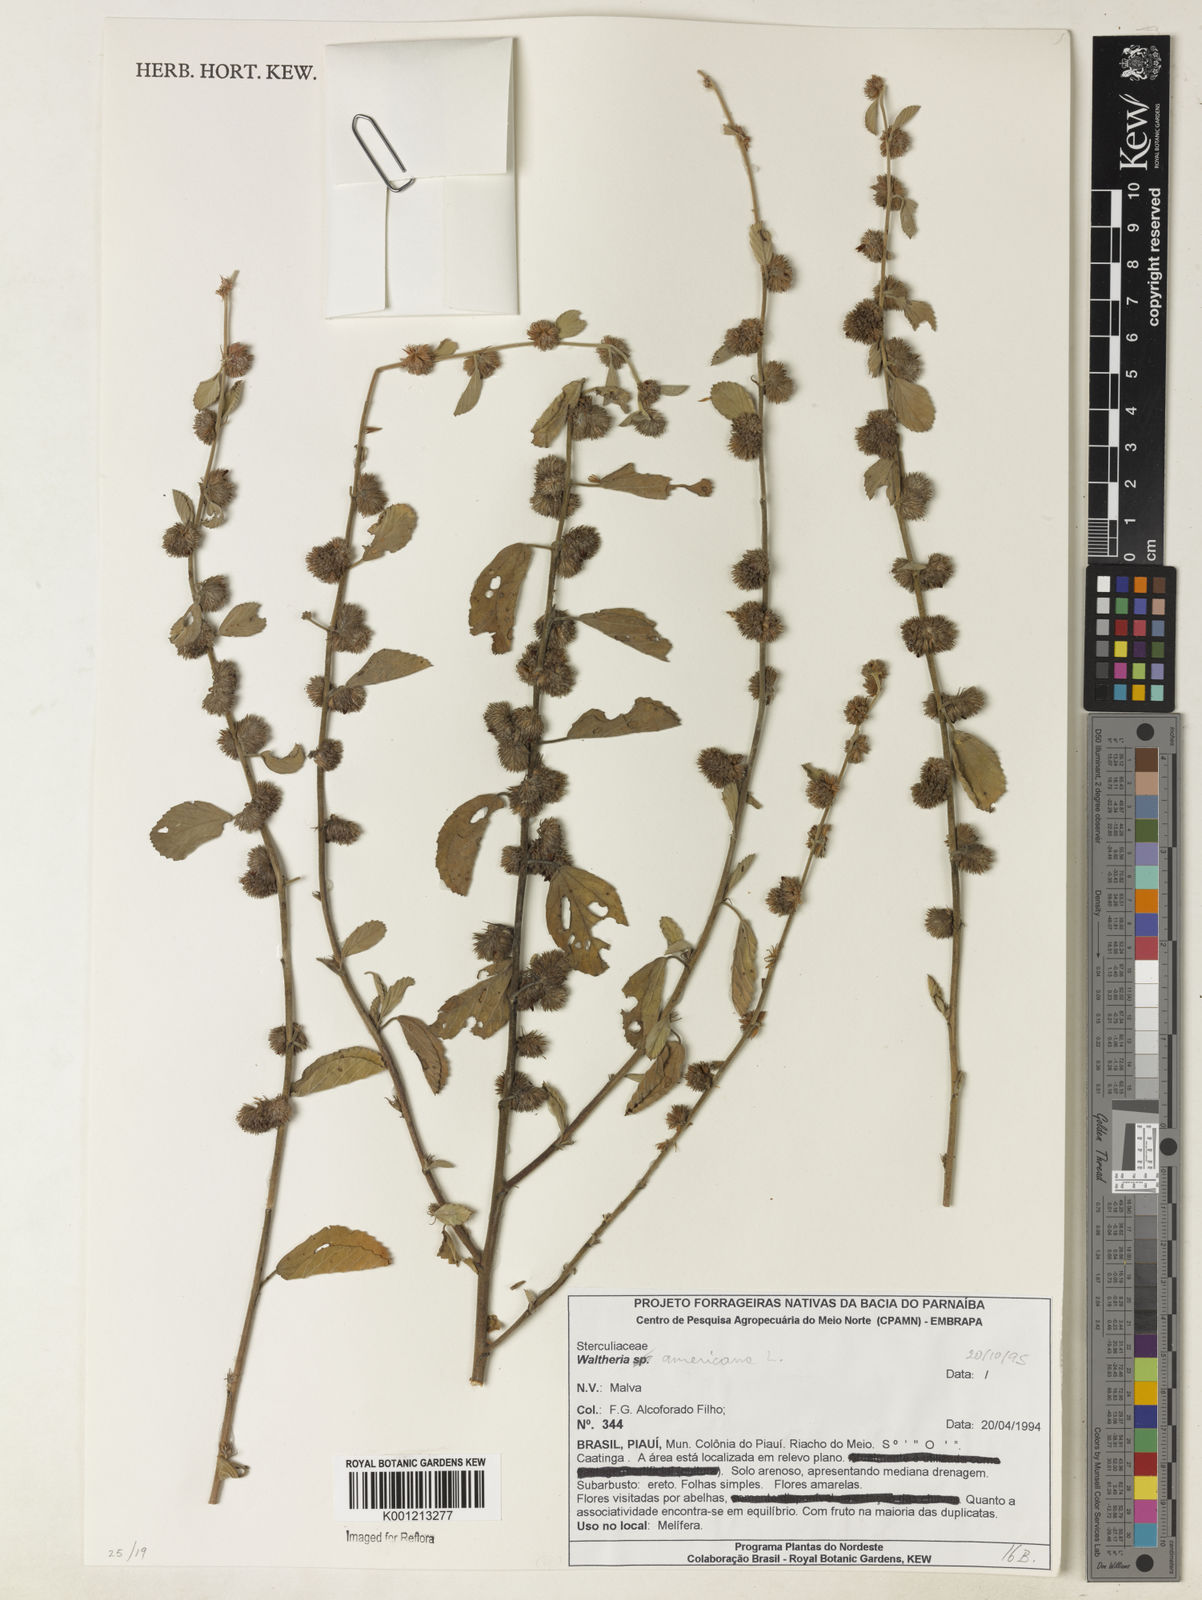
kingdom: Plantae
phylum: Tracheophyta
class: Magnoliopsida
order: Malvales
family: Malvaceae
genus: Waltheria
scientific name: Waltheria indica
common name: Leather-coat
